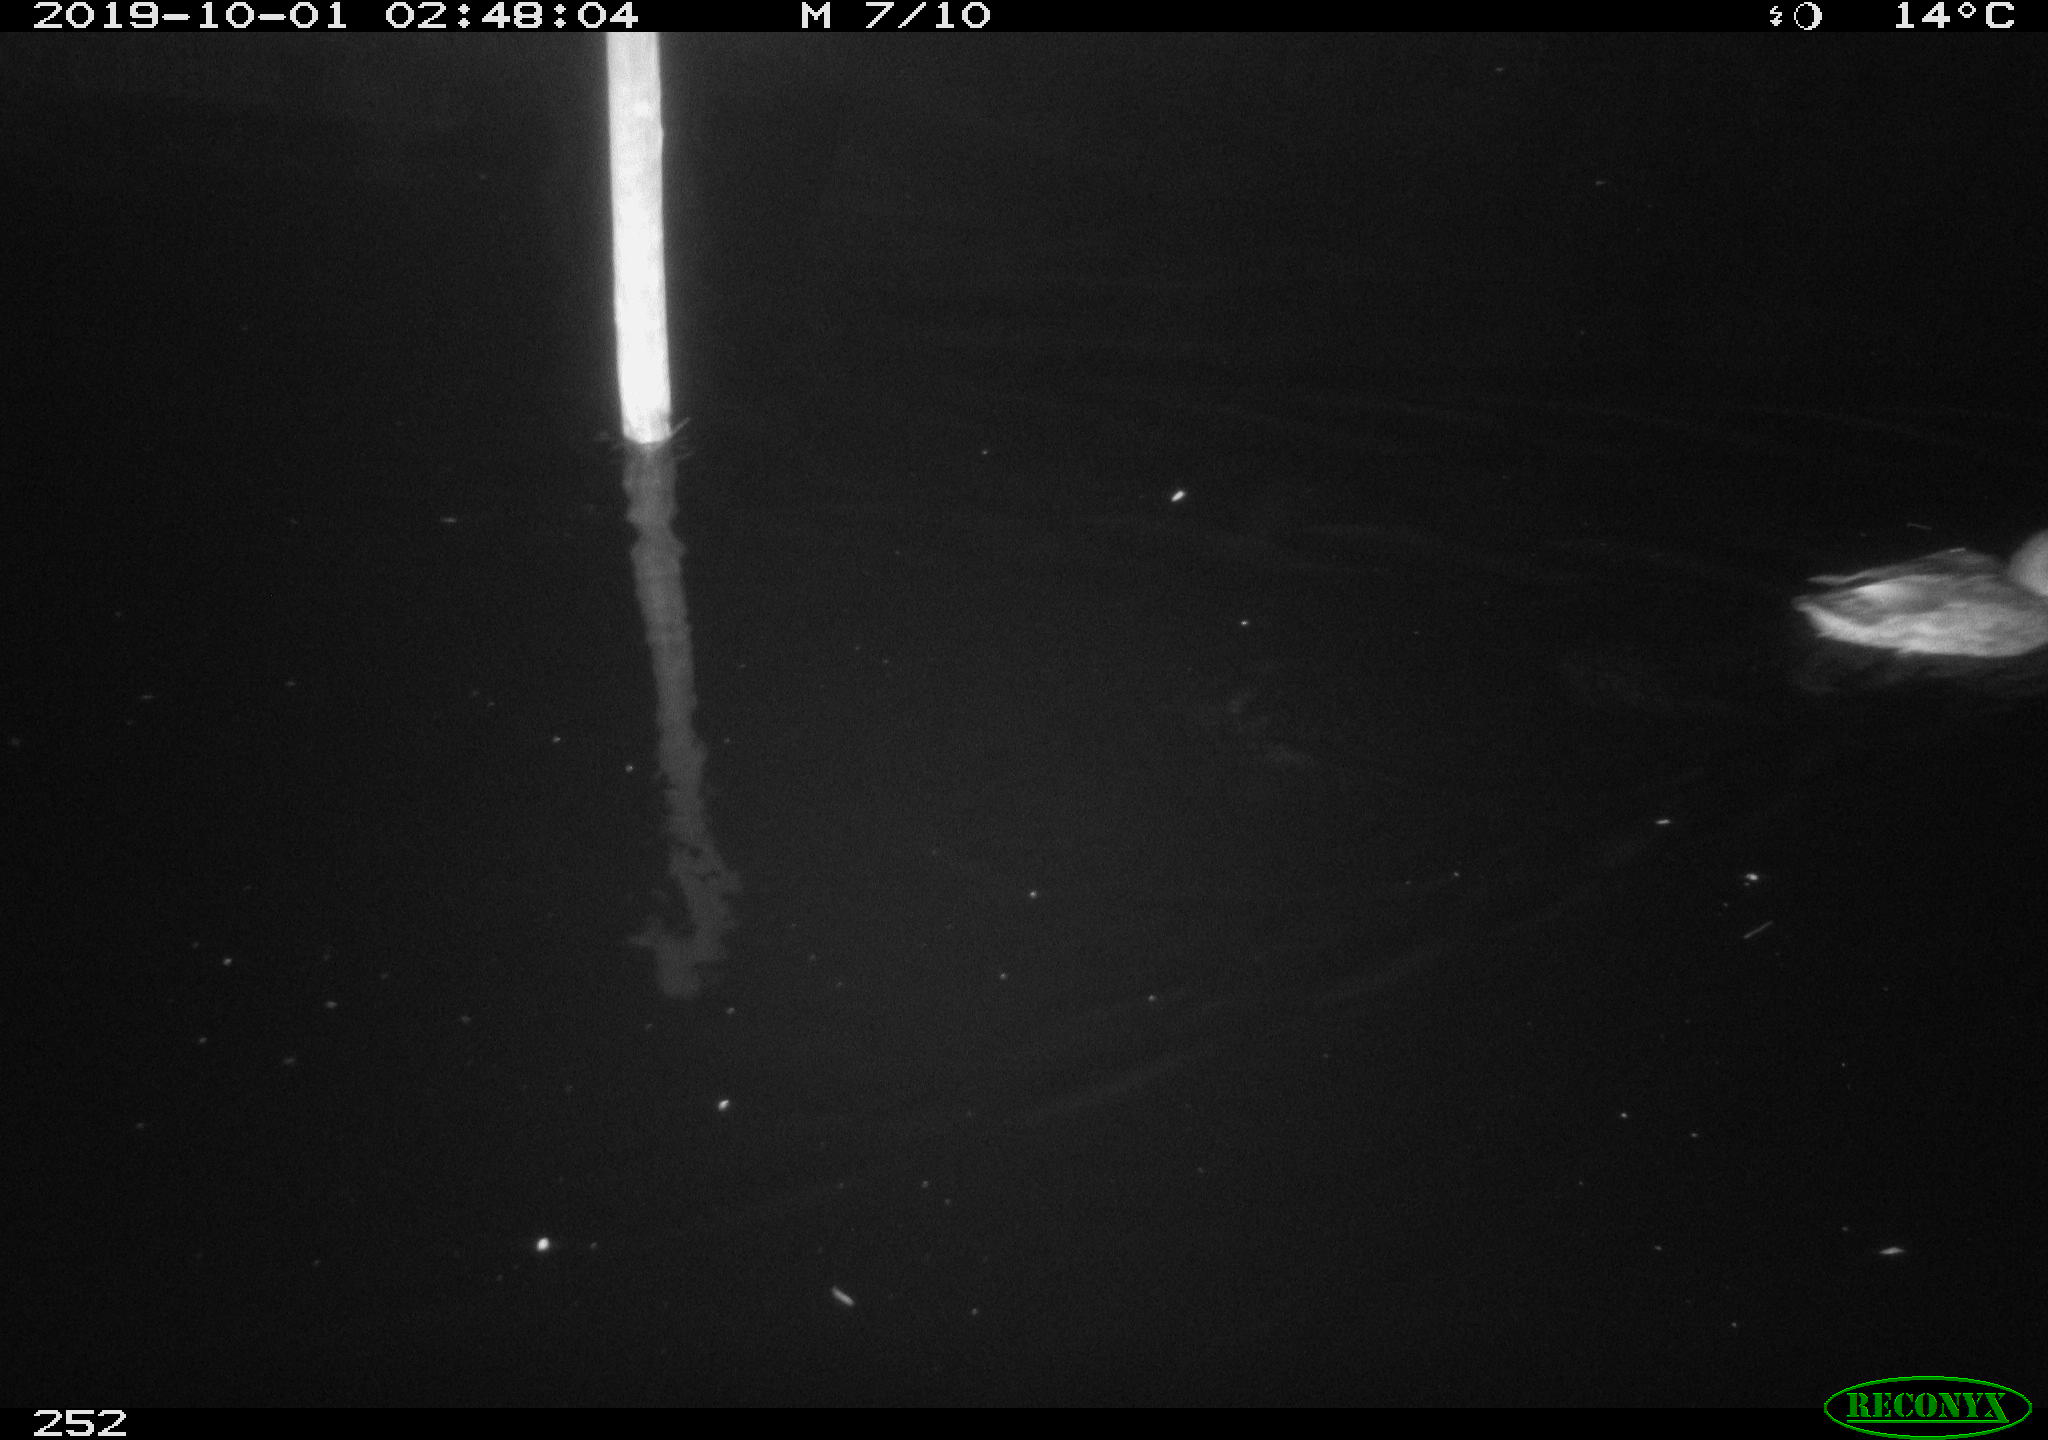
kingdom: Animalia
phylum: Chordata
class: Aves
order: Anseriformes
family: Anatidae
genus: Anas
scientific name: Anas platyrhynchos
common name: Mallard
